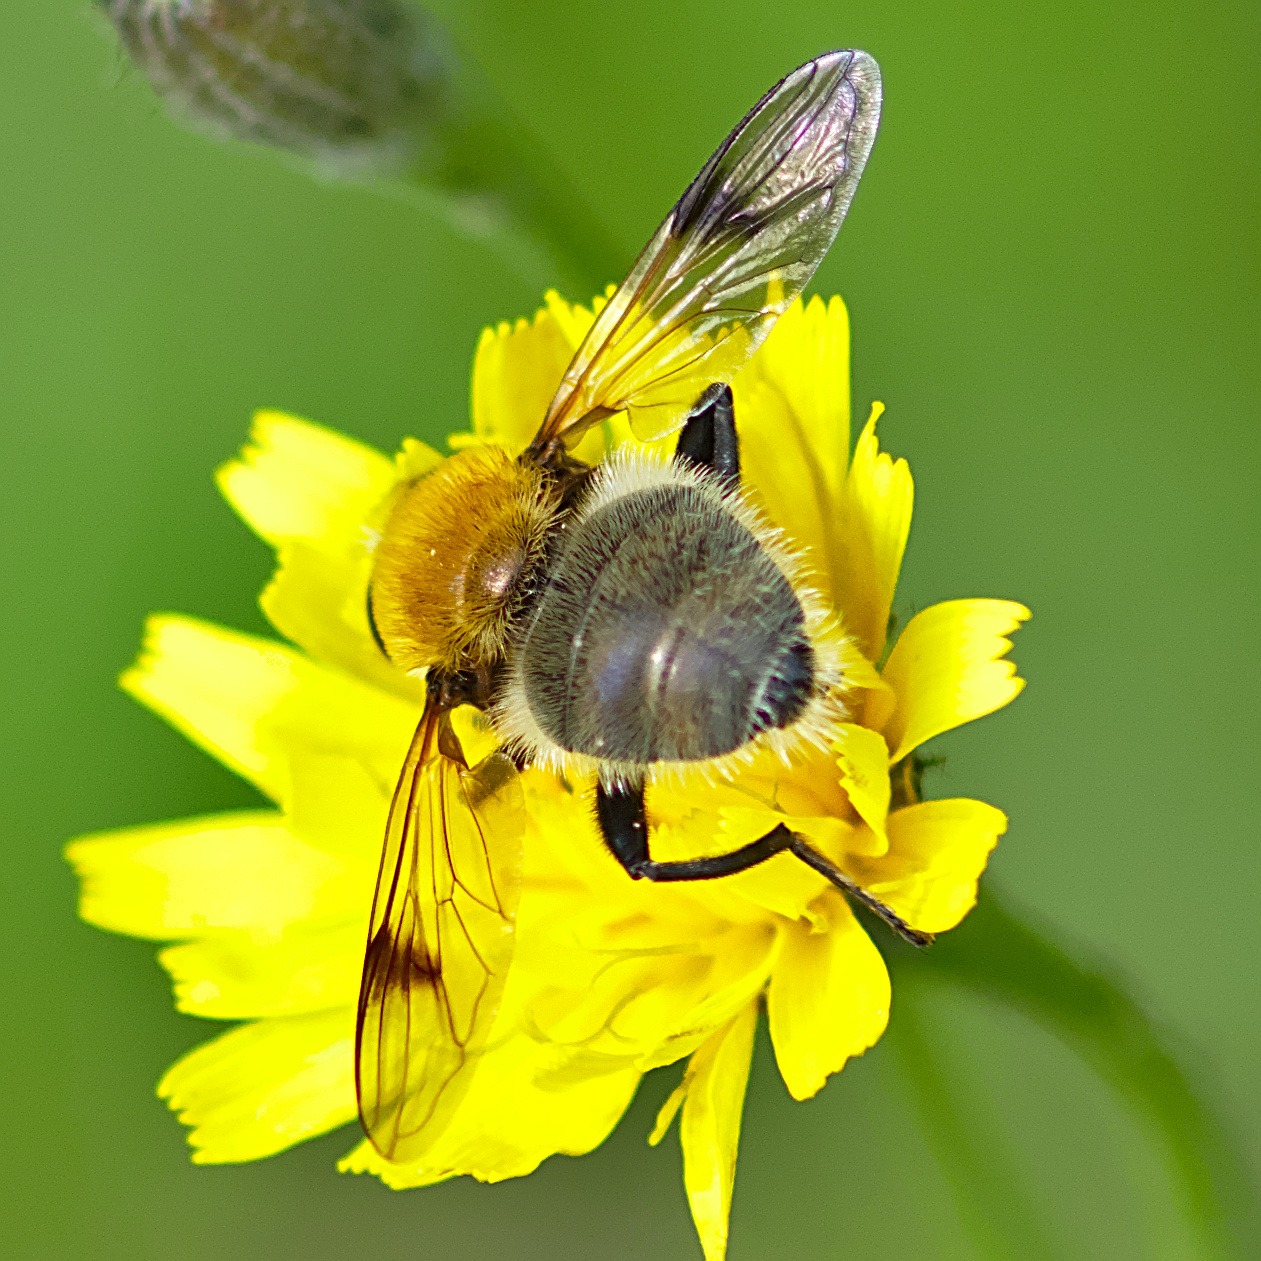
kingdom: Animalia
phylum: Arthropoda
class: Insecta
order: Diptera
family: Syrphidae
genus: Sericomyia
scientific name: Sericomyia superbiens
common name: Brun bjørnesvirreflue
